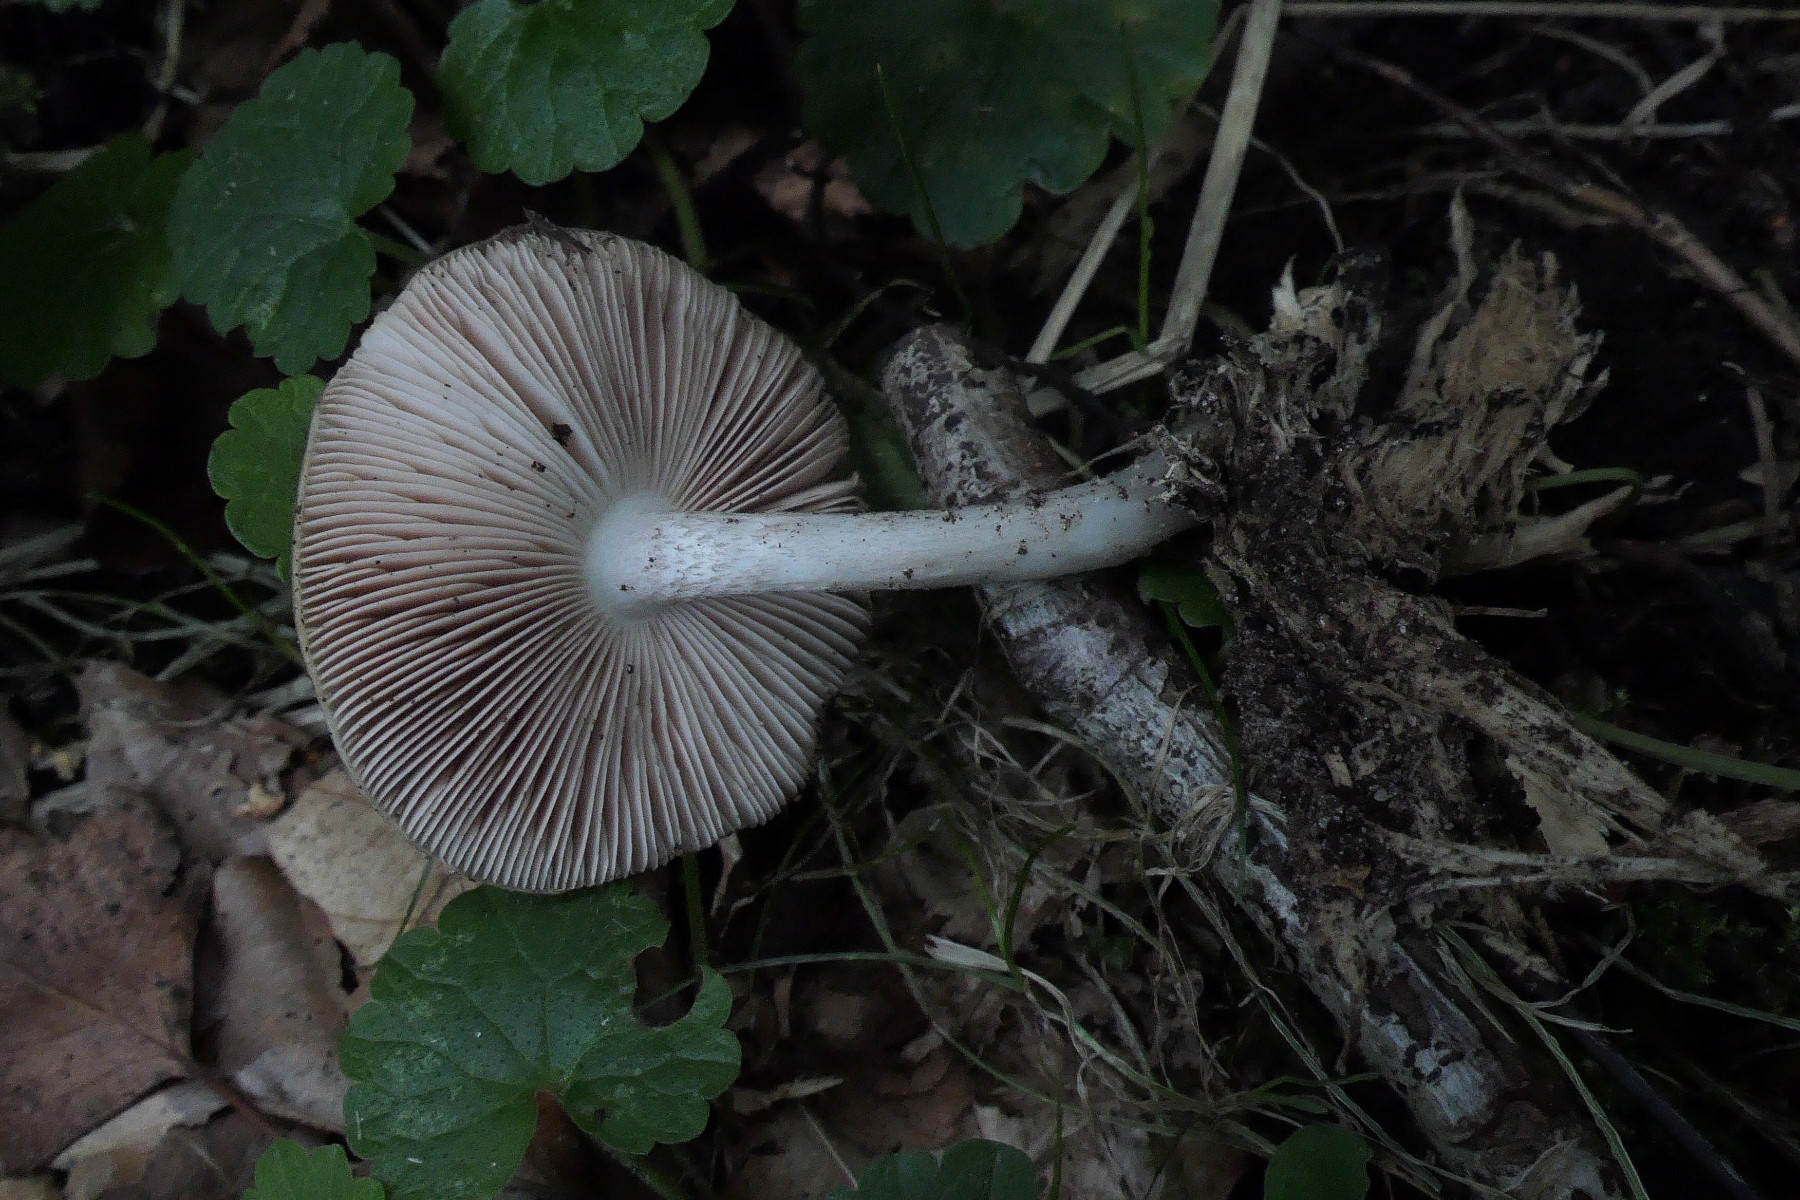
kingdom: Fungi
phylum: Basidiomycota
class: Agaricomycetes
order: Agaricales
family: Pluteaceae
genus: Pluteus
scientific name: Pluteus cervinus
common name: sodfarvet skærmhat
